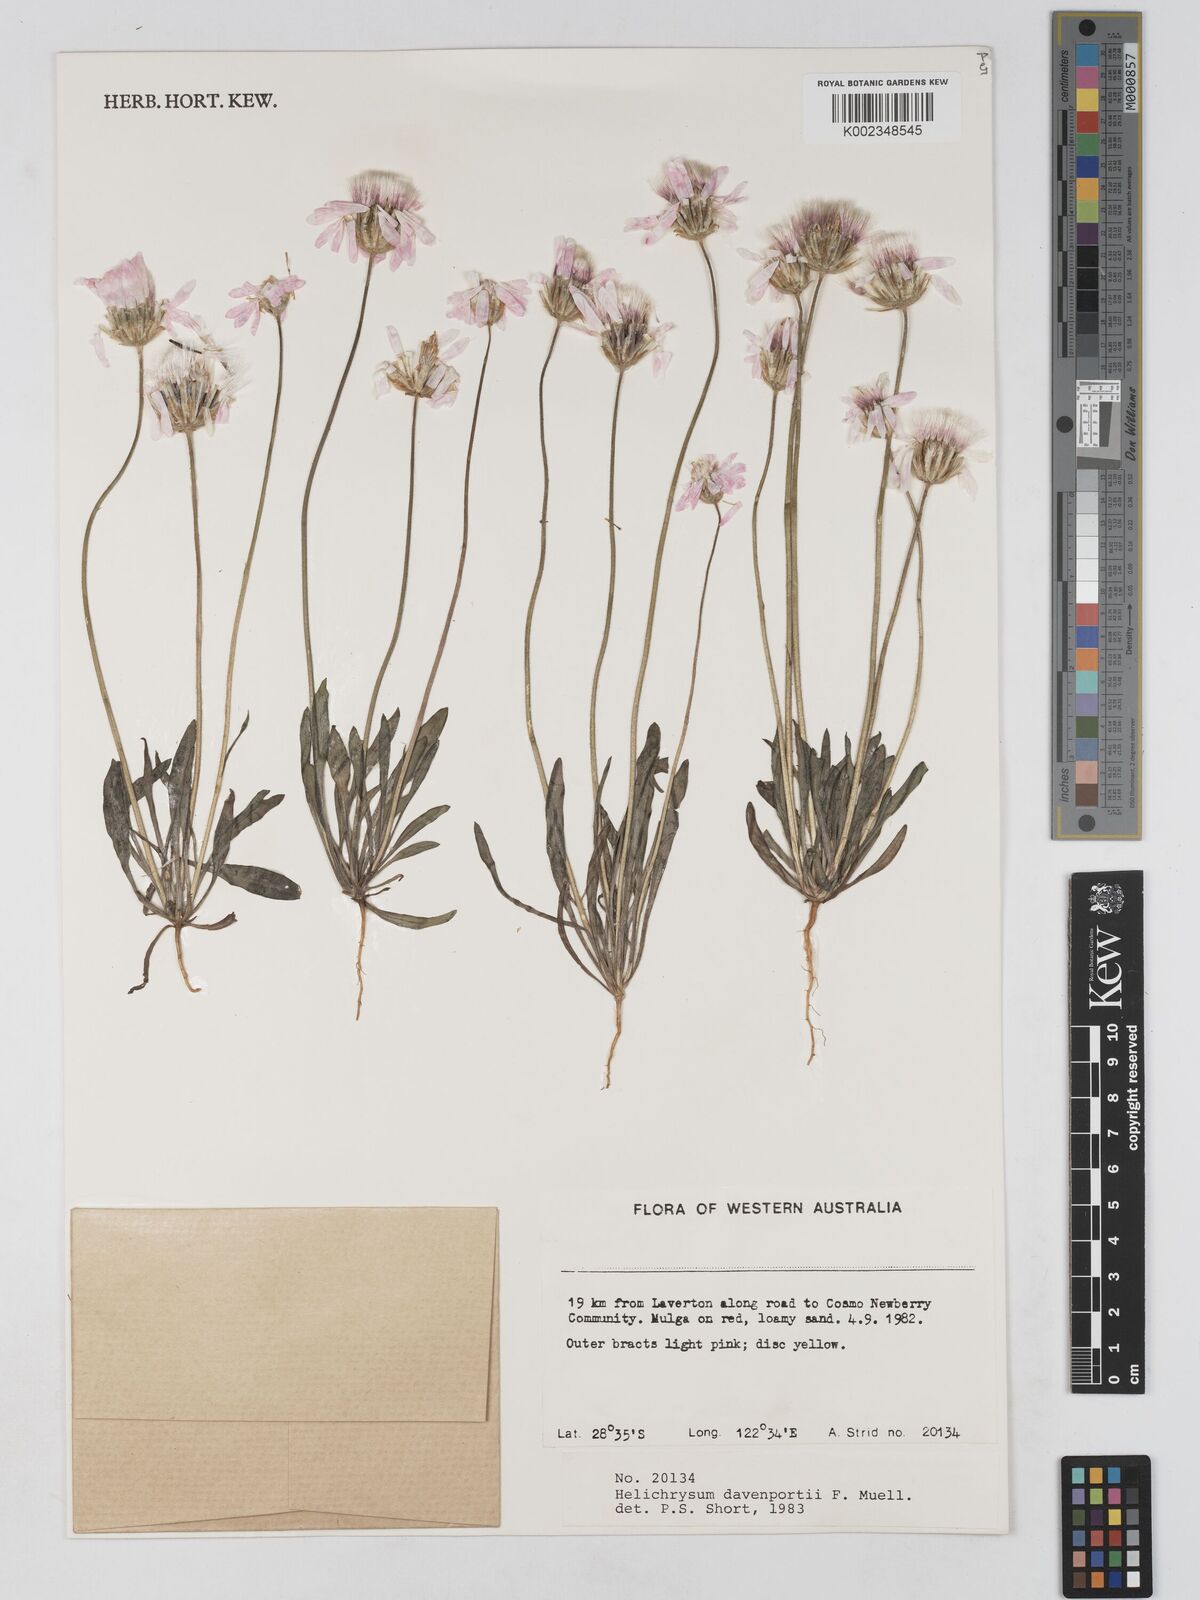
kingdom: Plantae
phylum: Tracheophyta
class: Magnoliopsida
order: Asterales
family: Asteraceae
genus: Lawrencella
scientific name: Lawrencella davenportii
